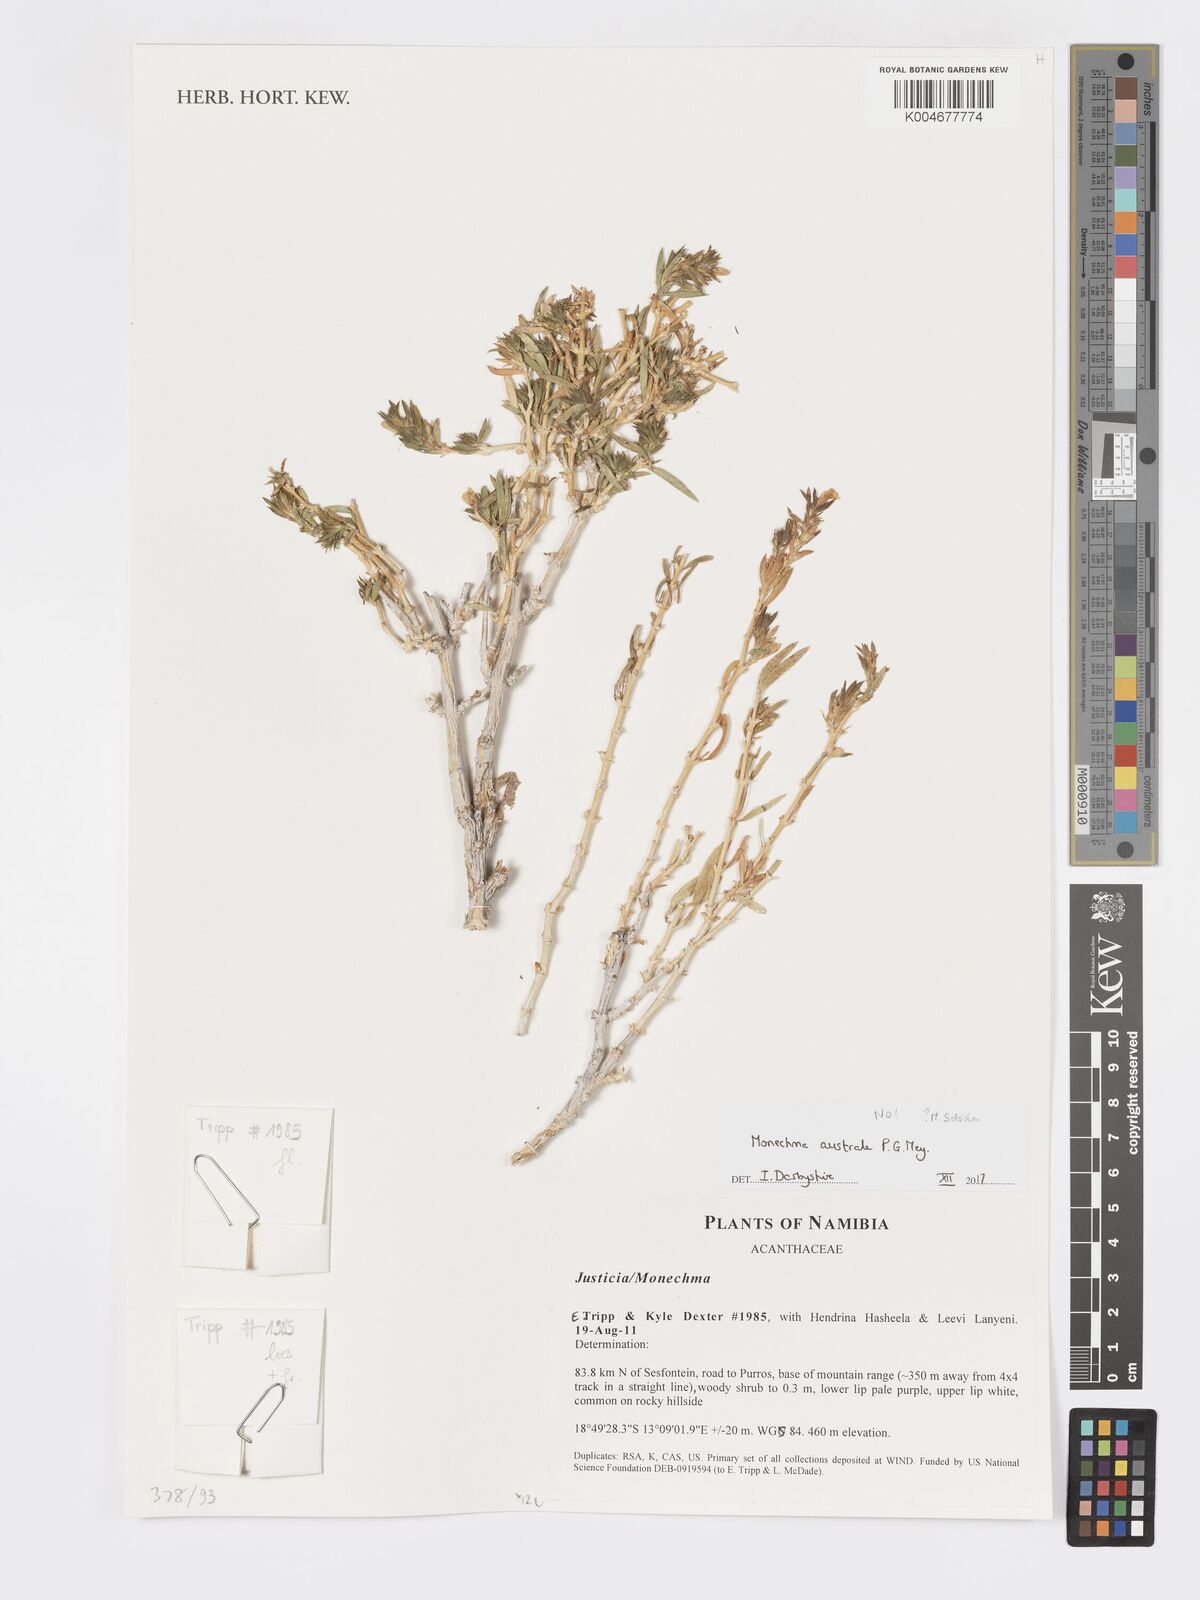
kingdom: Plantae
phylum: Tracheophyta
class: Magnoliopsida
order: Lamiales
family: Acanthaceae
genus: Pogonospermum
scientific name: Pogonospermum ciliare
